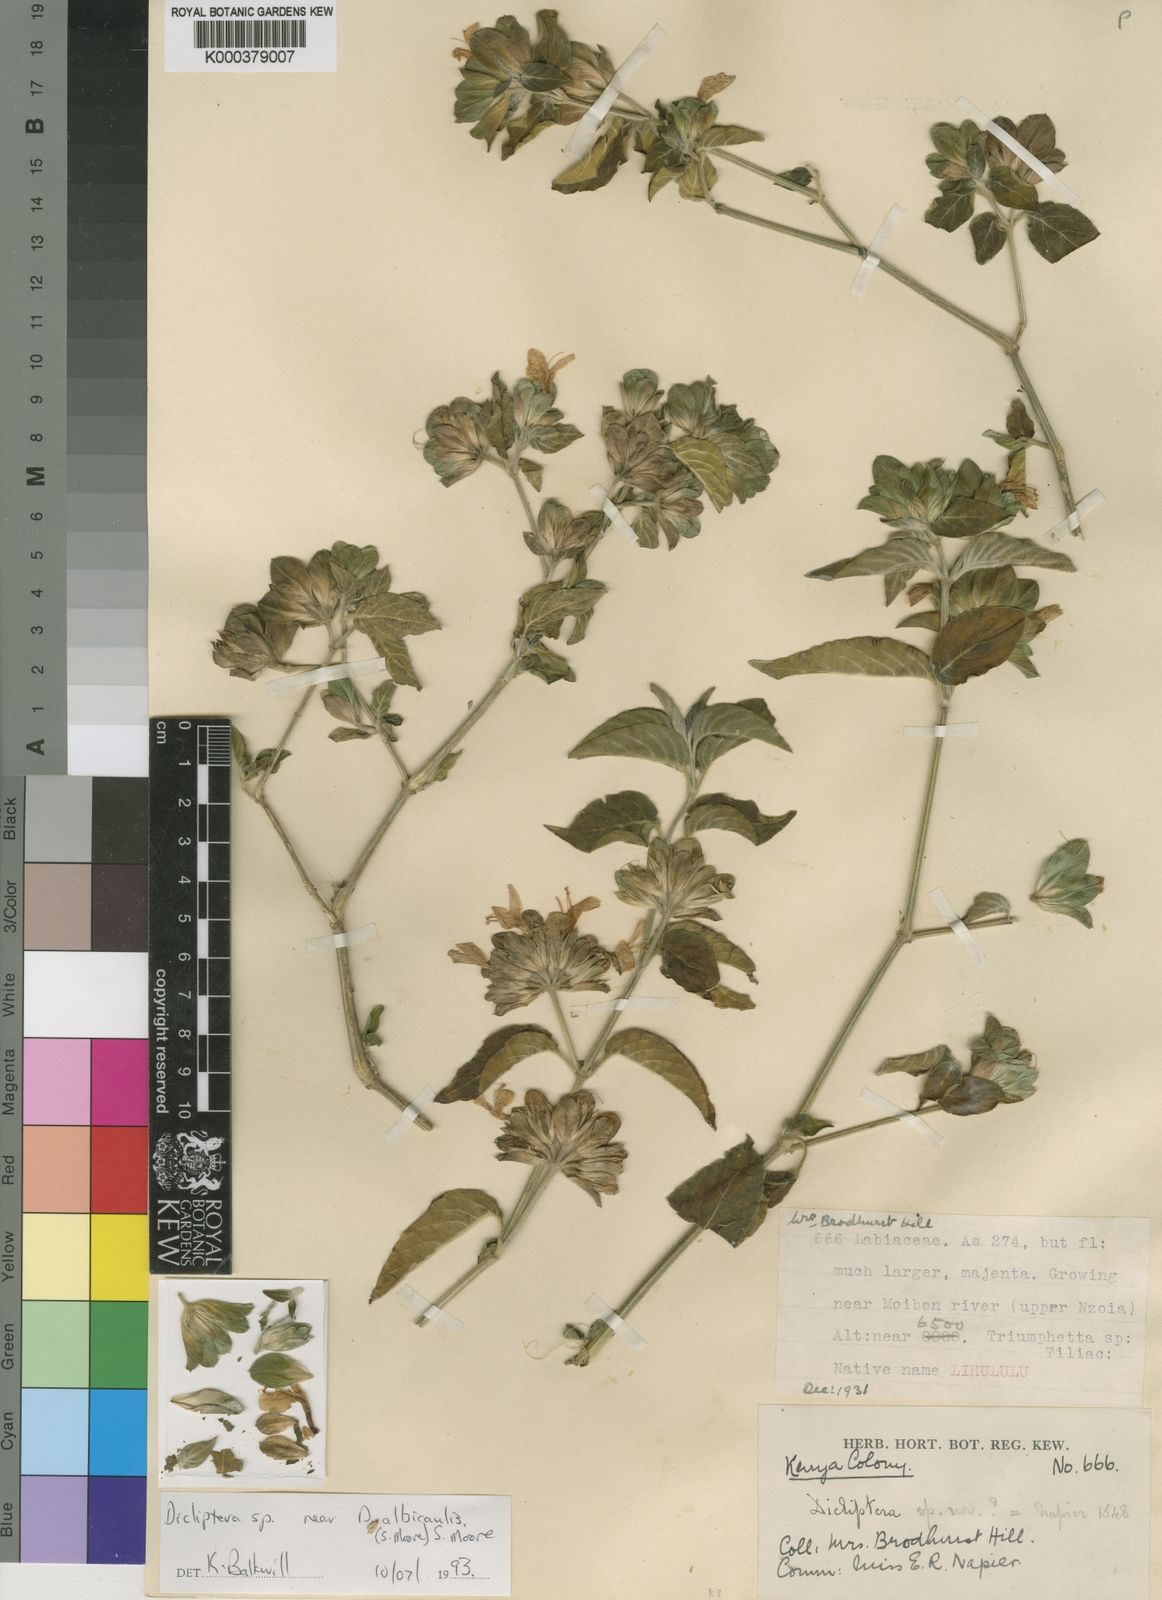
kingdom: Plantae
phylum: Tracheophyta
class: Magnoliopsida
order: Lamiales
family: Acanthaceae
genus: Dicliptera
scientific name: Dicliptera latibracteata
